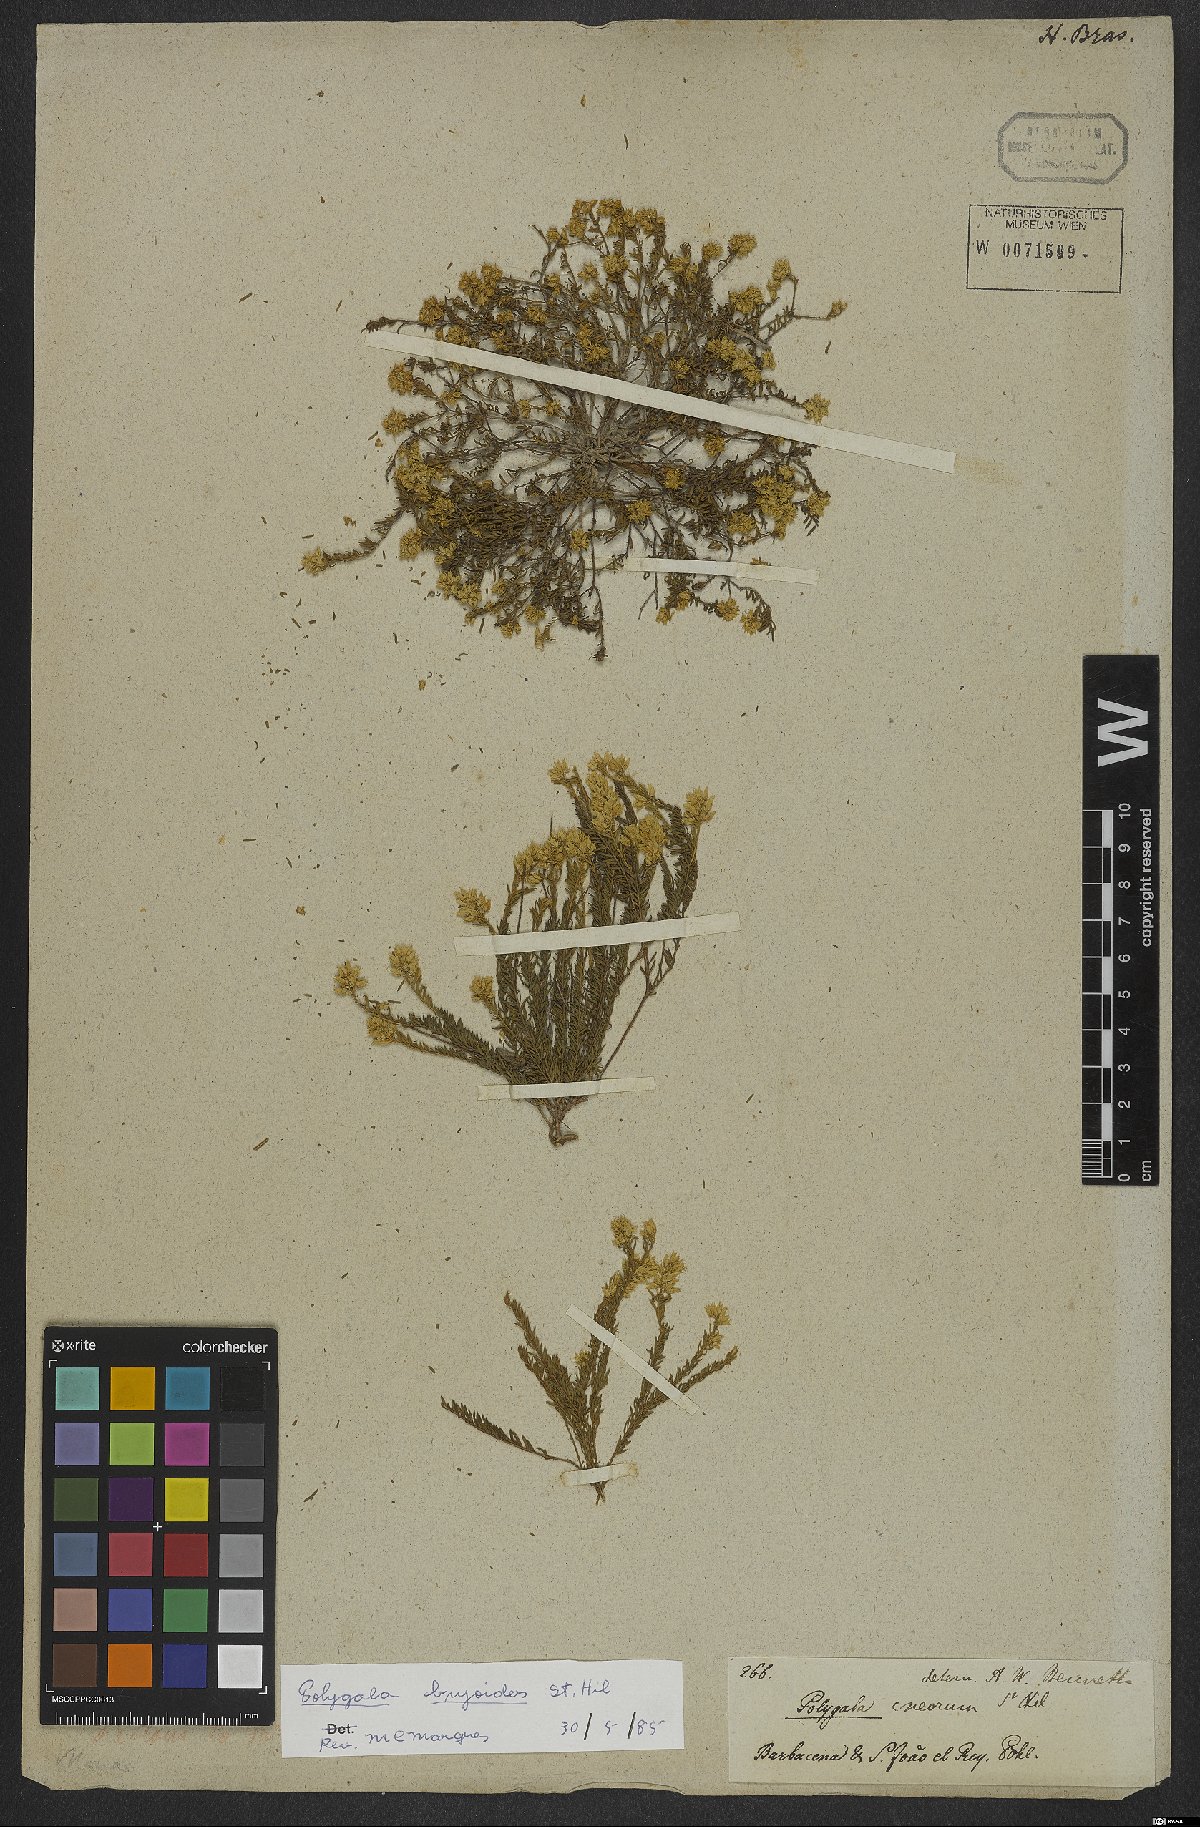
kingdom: Plantae
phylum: Tracheophyta
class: Magnoliopsida
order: Fabales
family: Polygalaceae
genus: Polygala
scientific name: Polygala bryoides
